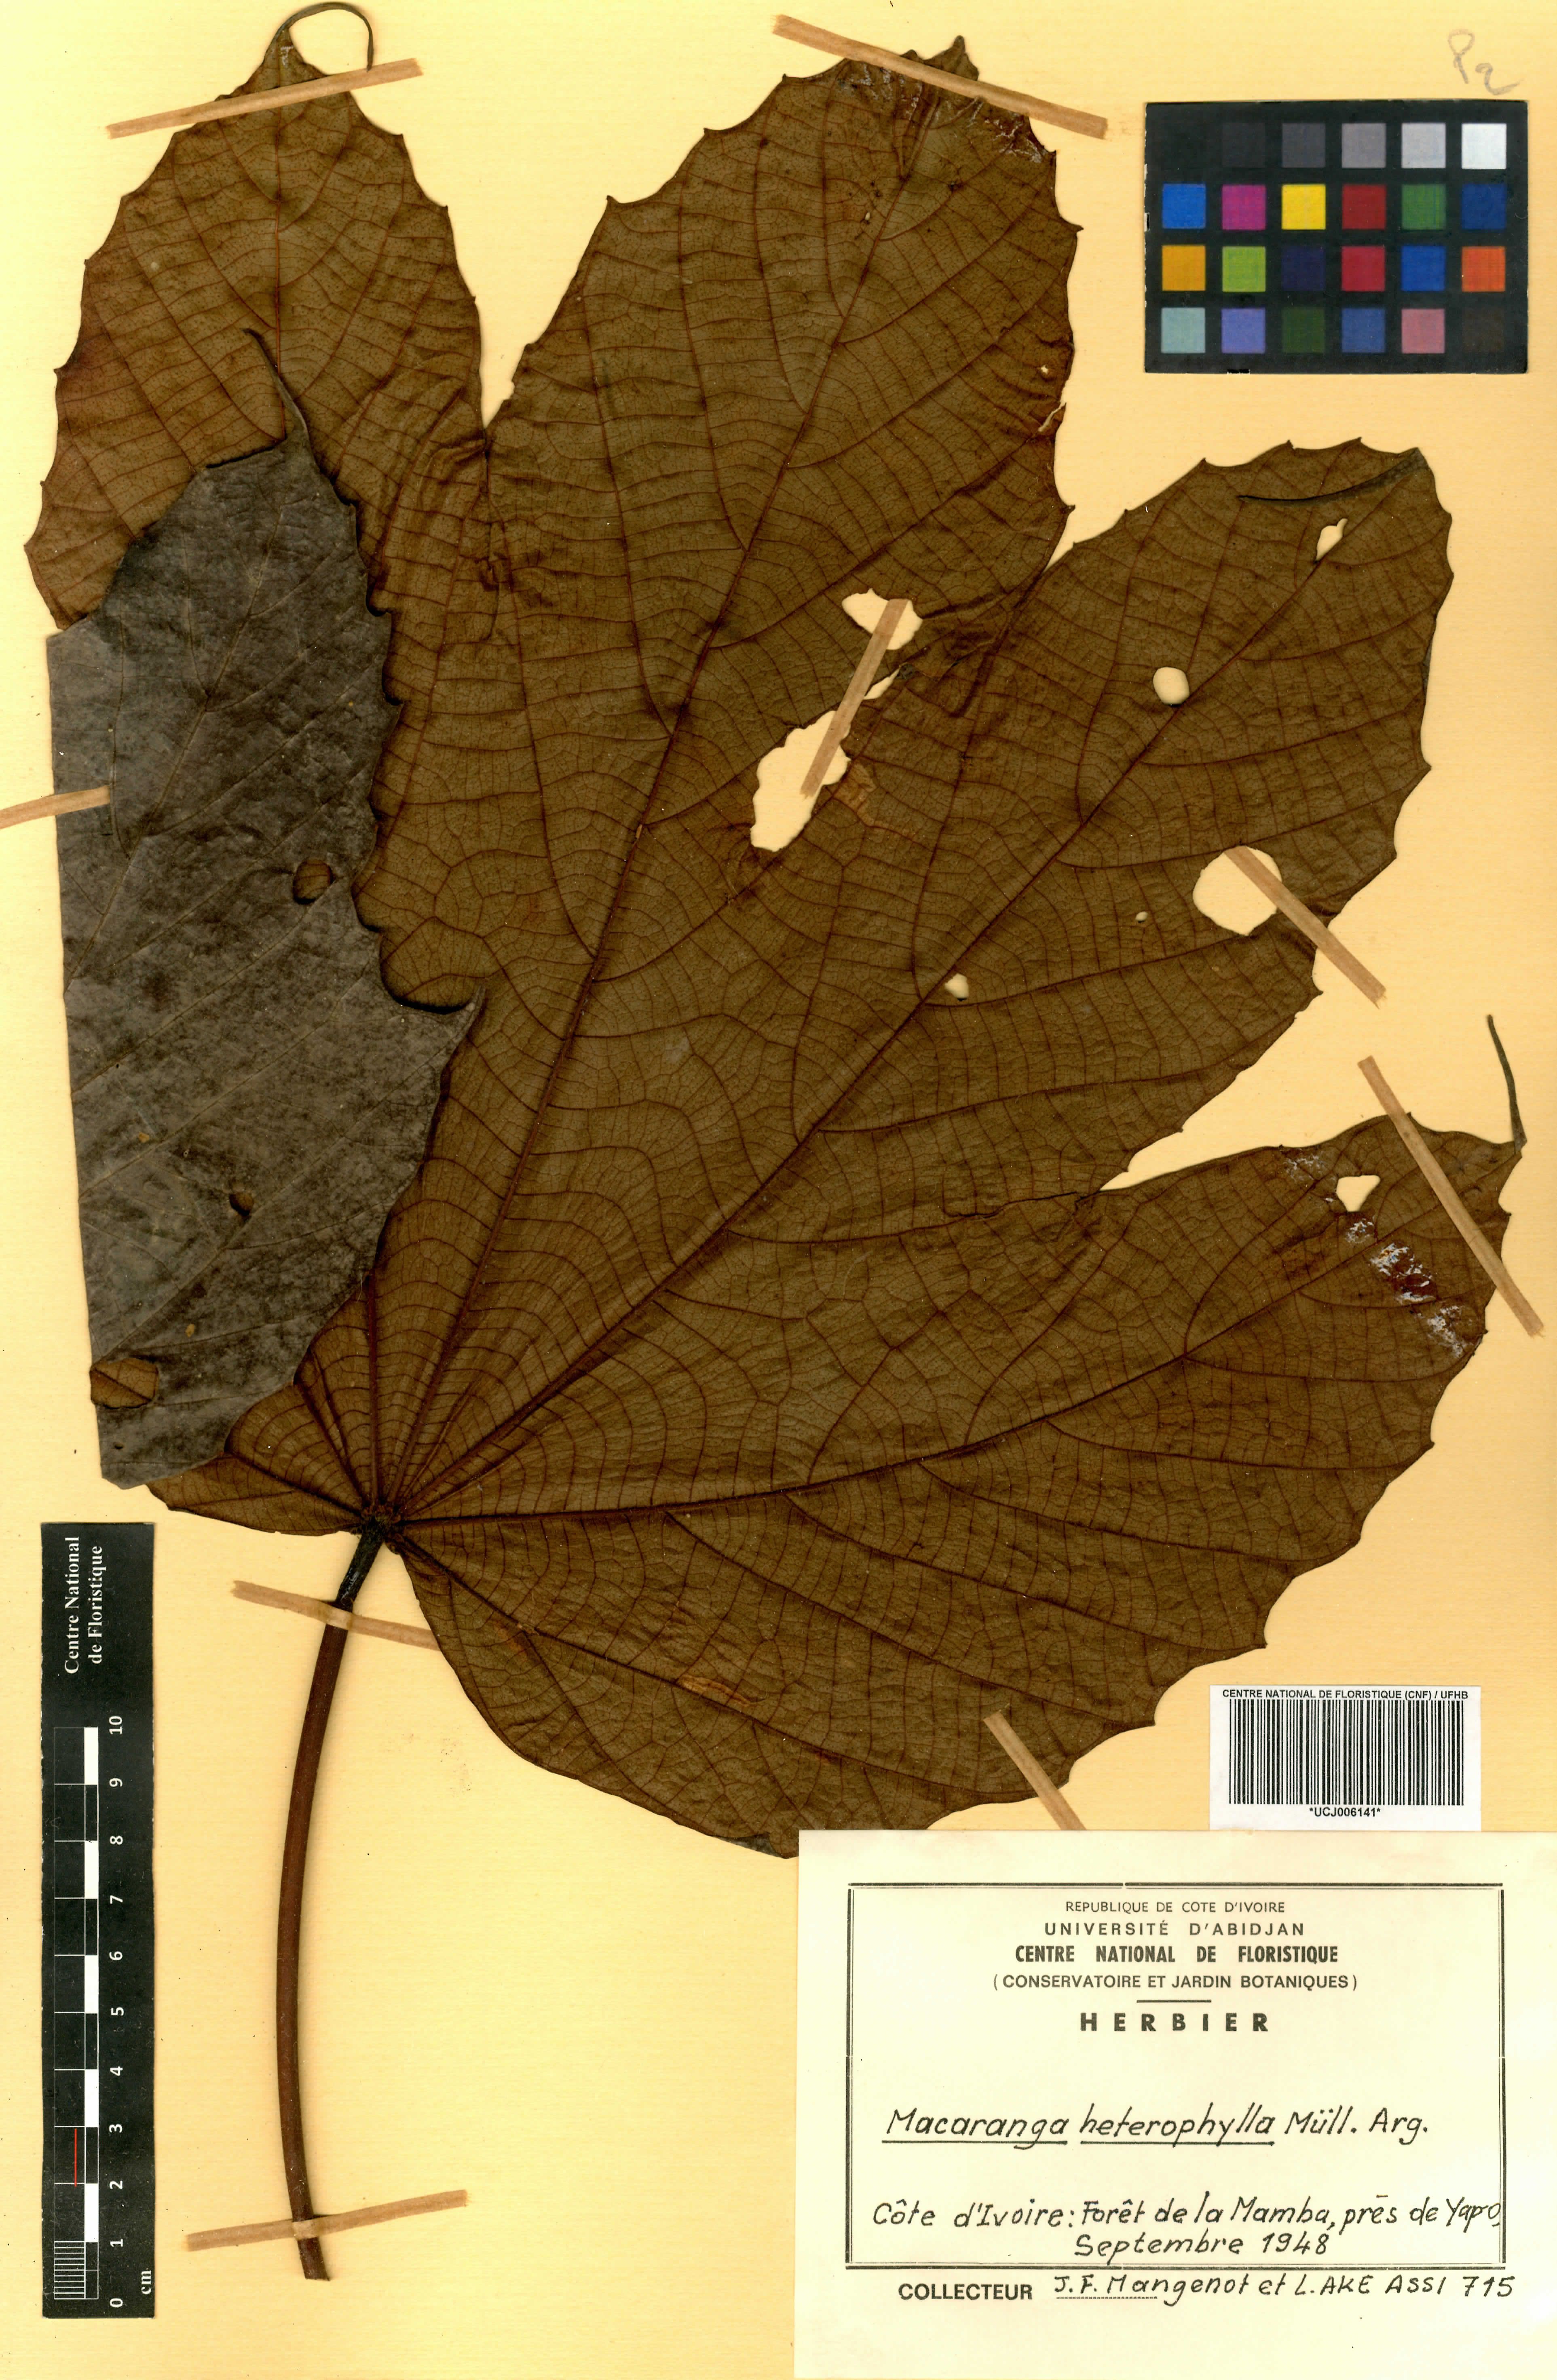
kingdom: Plantae
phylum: Tracheophyta
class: Magnoliopsida
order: Malpighiales
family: Euphorbiaceae
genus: Macaranga
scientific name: Macaranga heterophylla
